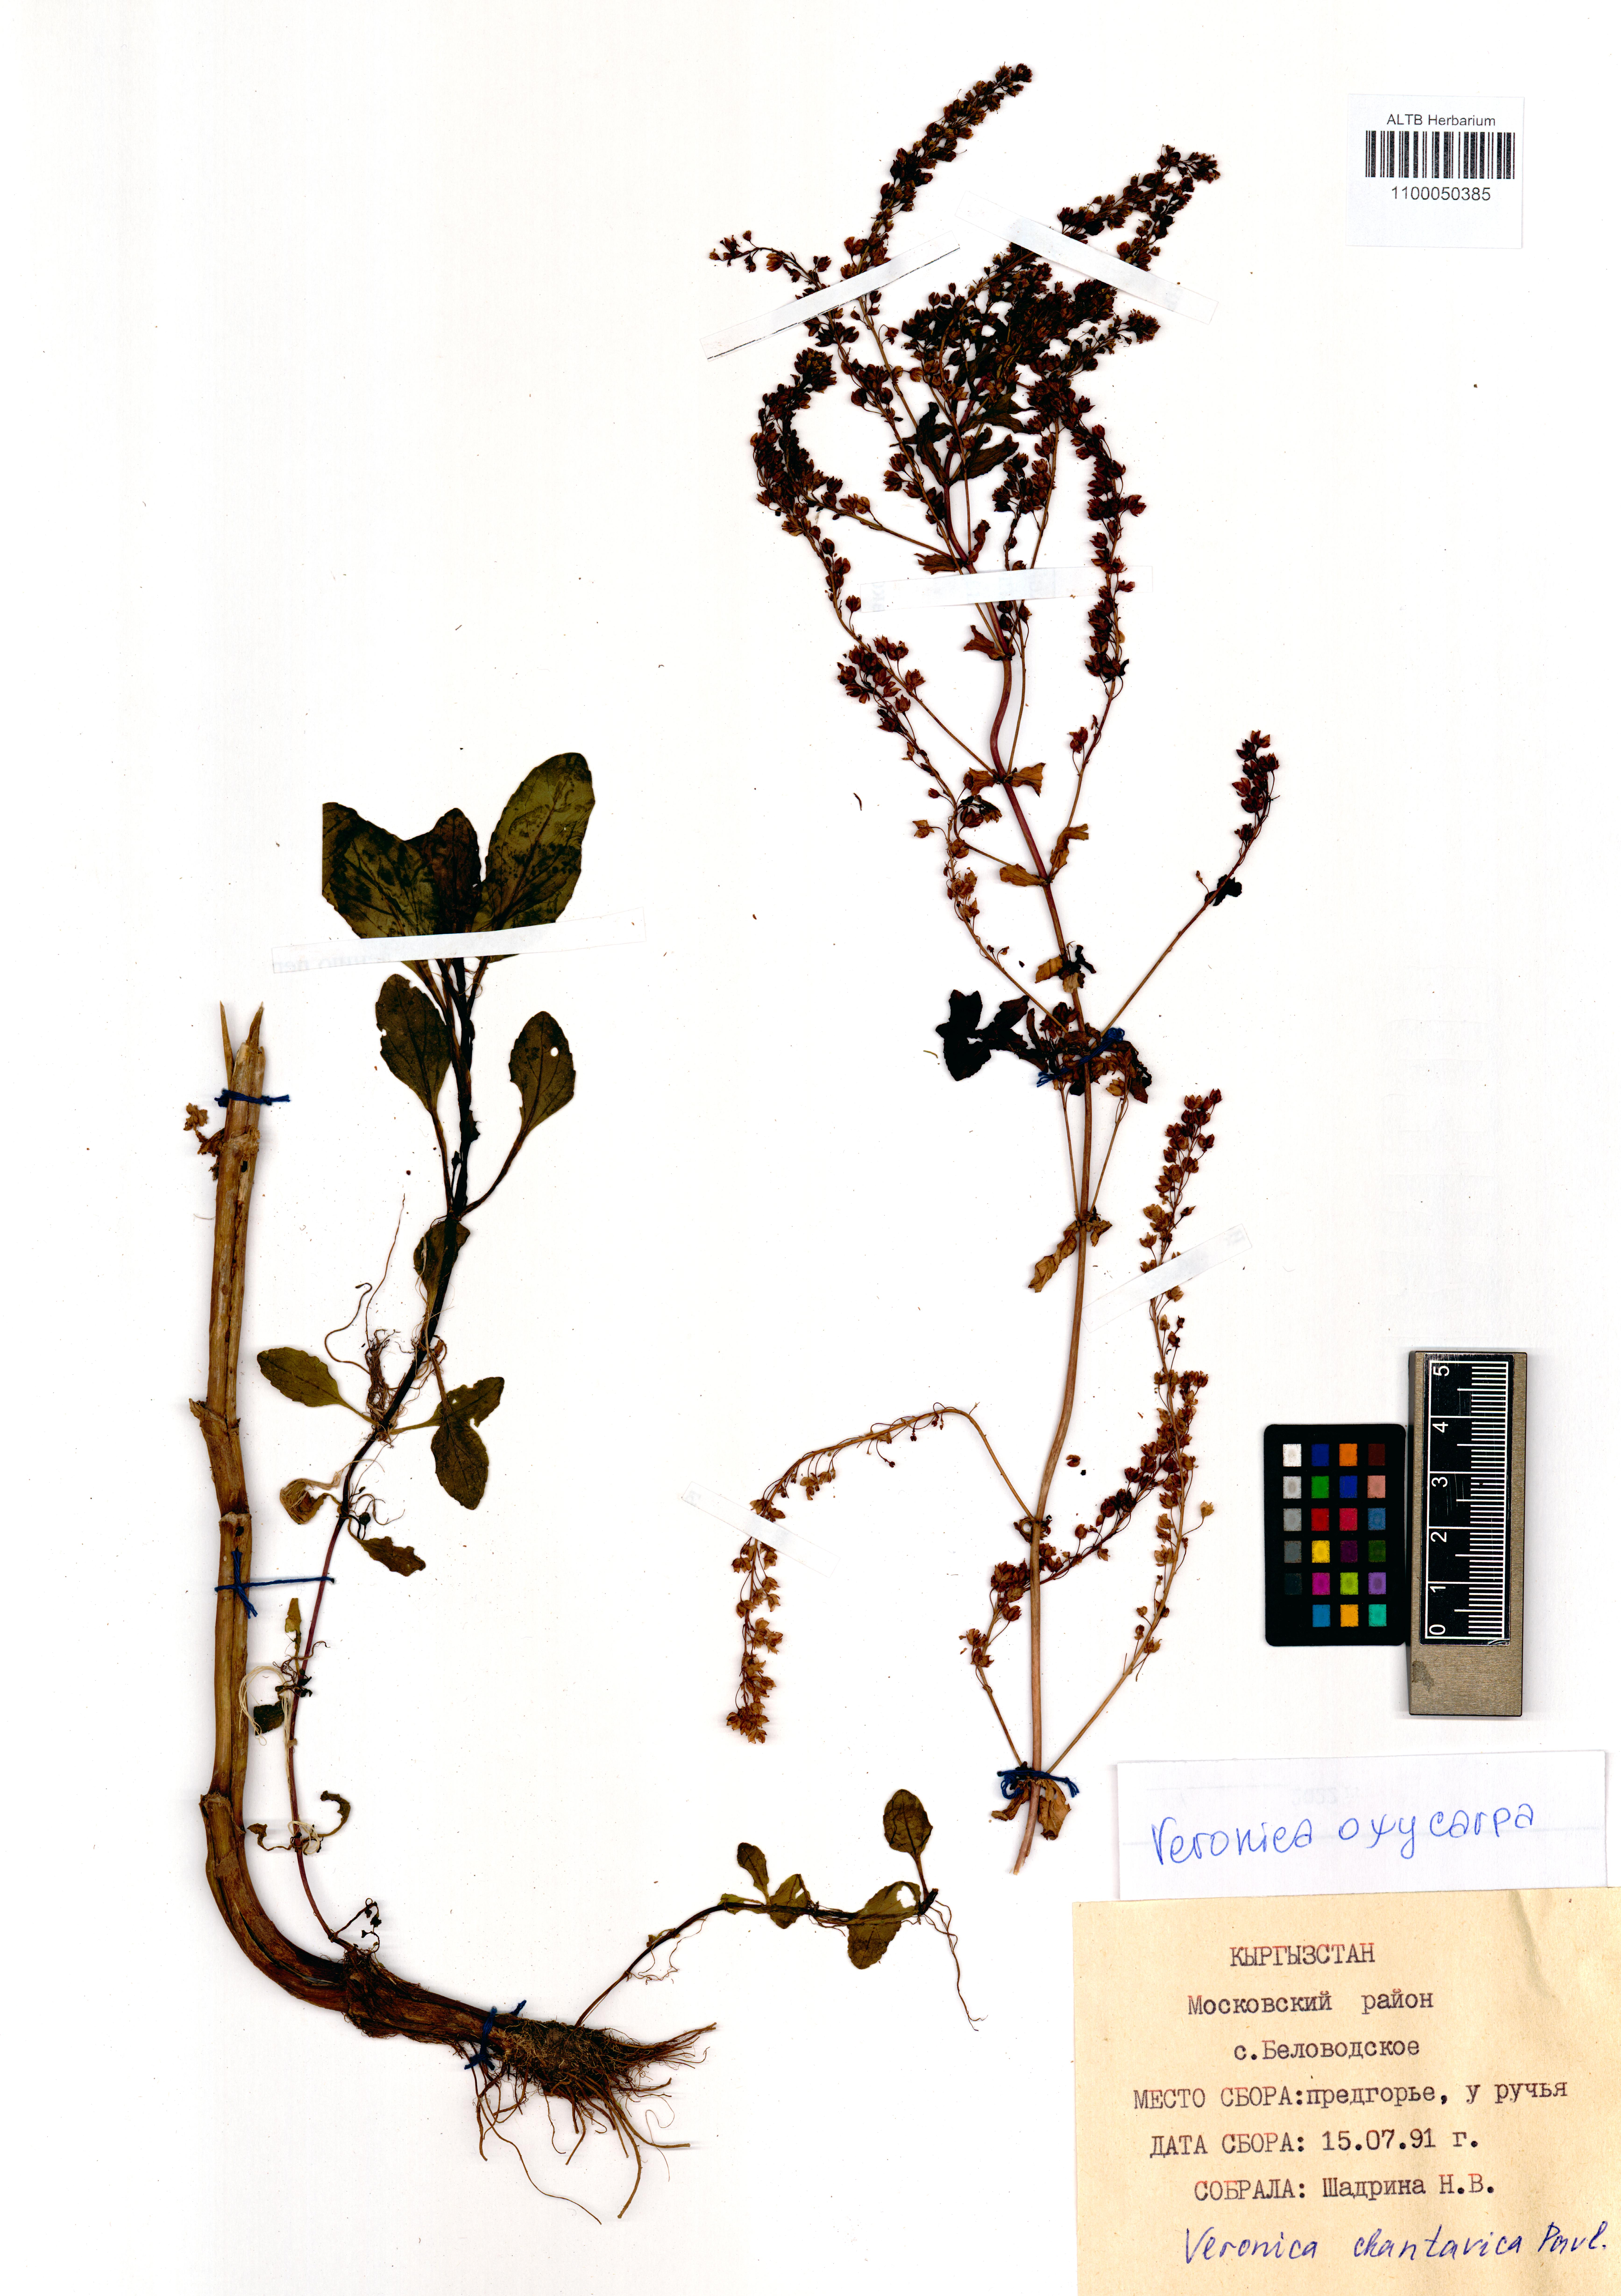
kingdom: Plantae
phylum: Tracheophyta
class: Magnoliopsida
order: Lamiales
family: Plantaginaceae
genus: Veronica
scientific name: Veronica oxycarpa
